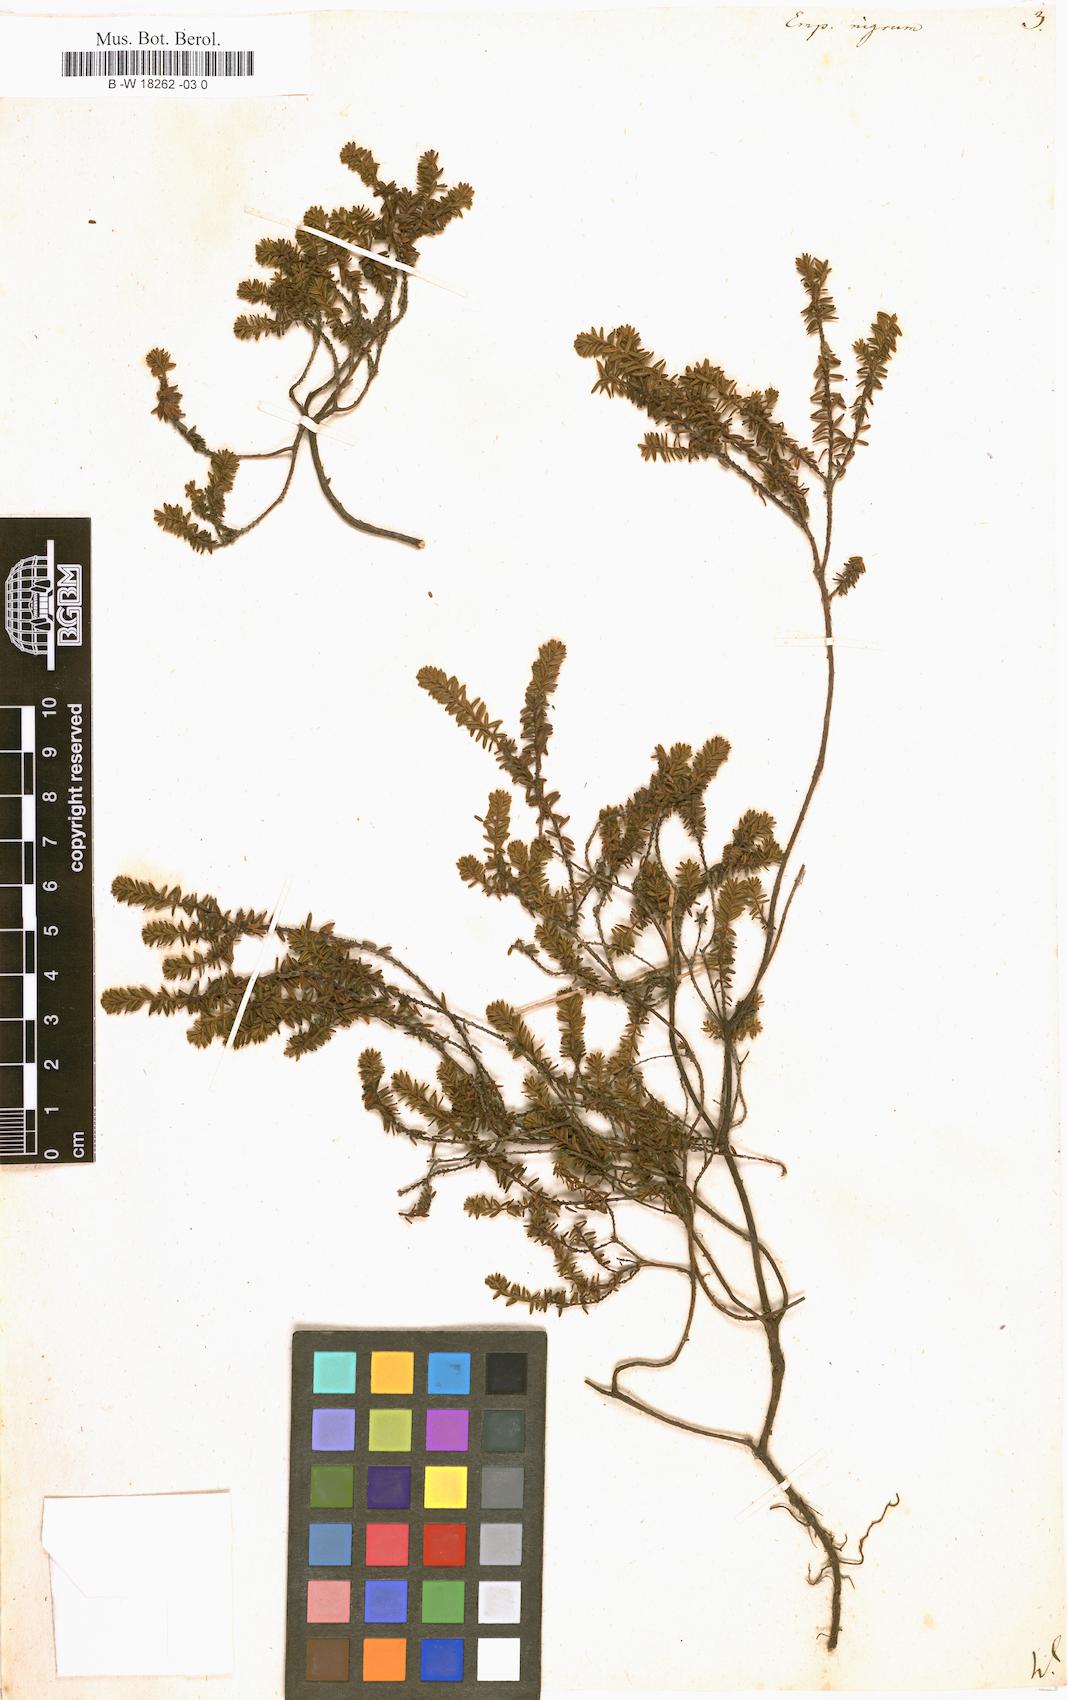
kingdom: Plantae
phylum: Tracheophyta
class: Magnoliopsida
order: Ericales
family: Ericaceae
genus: Empetrum
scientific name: Empetrum nigrum
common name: Black crowberry
